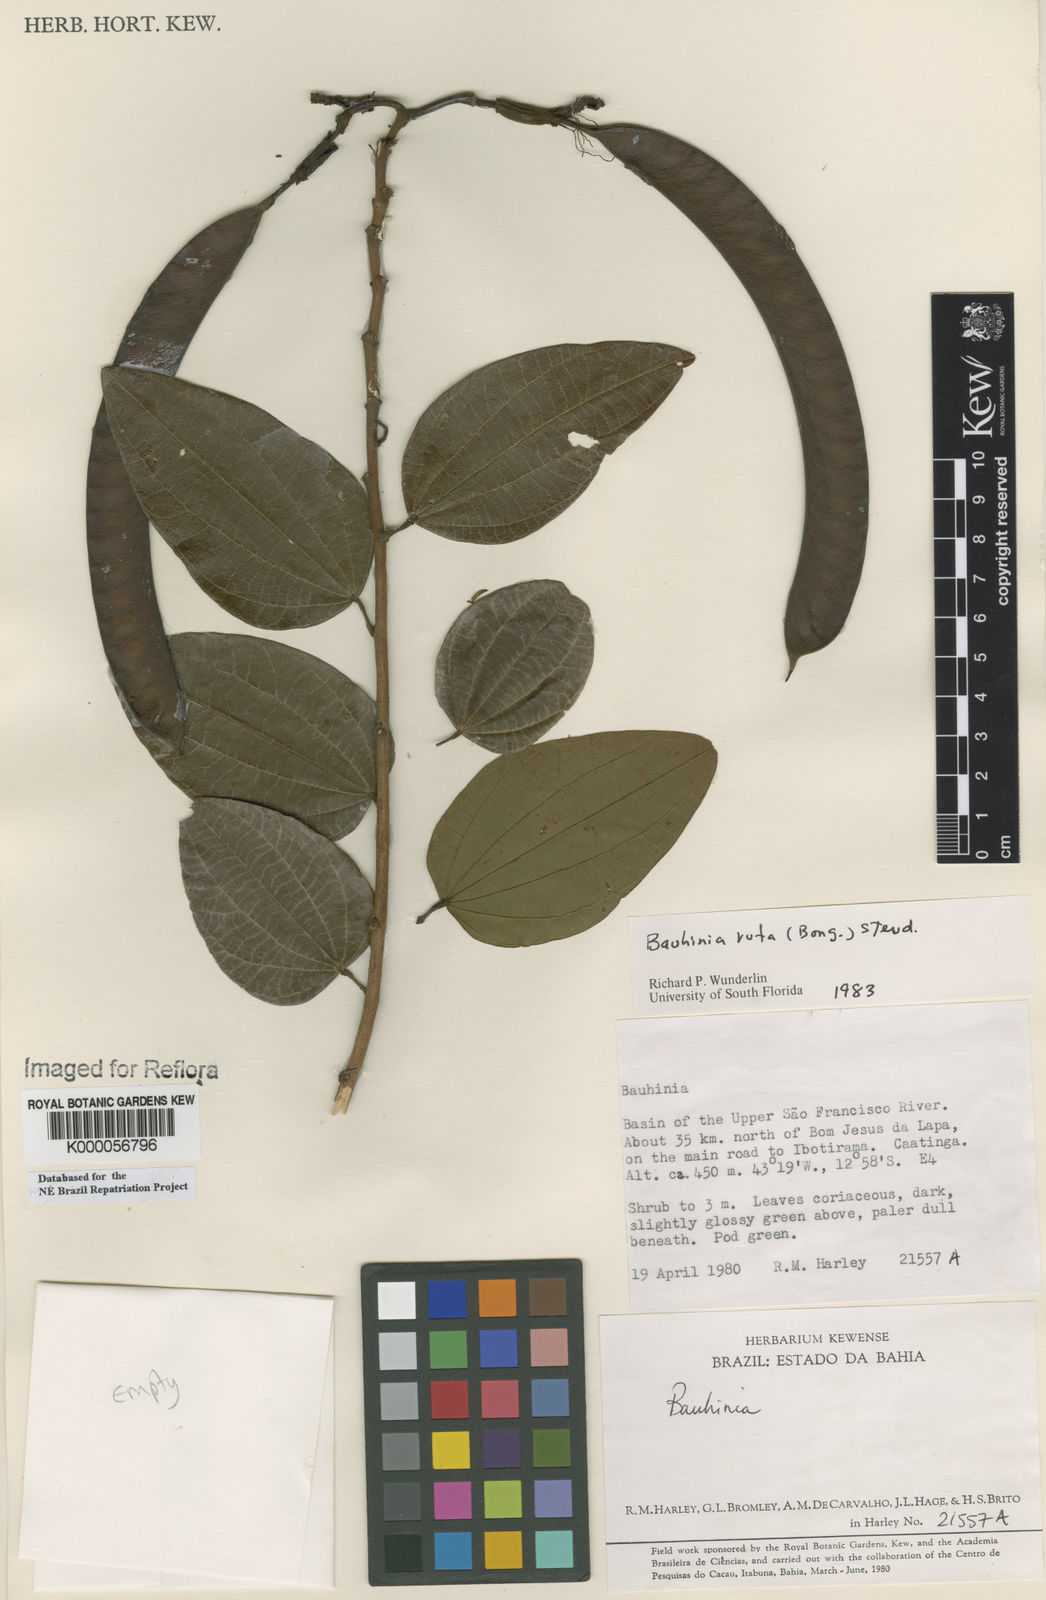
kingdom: Plantae
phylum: Tracheophyta
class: Magnoliopsida
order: Fabales
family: Fabaceae
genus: Bauhinia
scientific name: Bauhinia rufa
